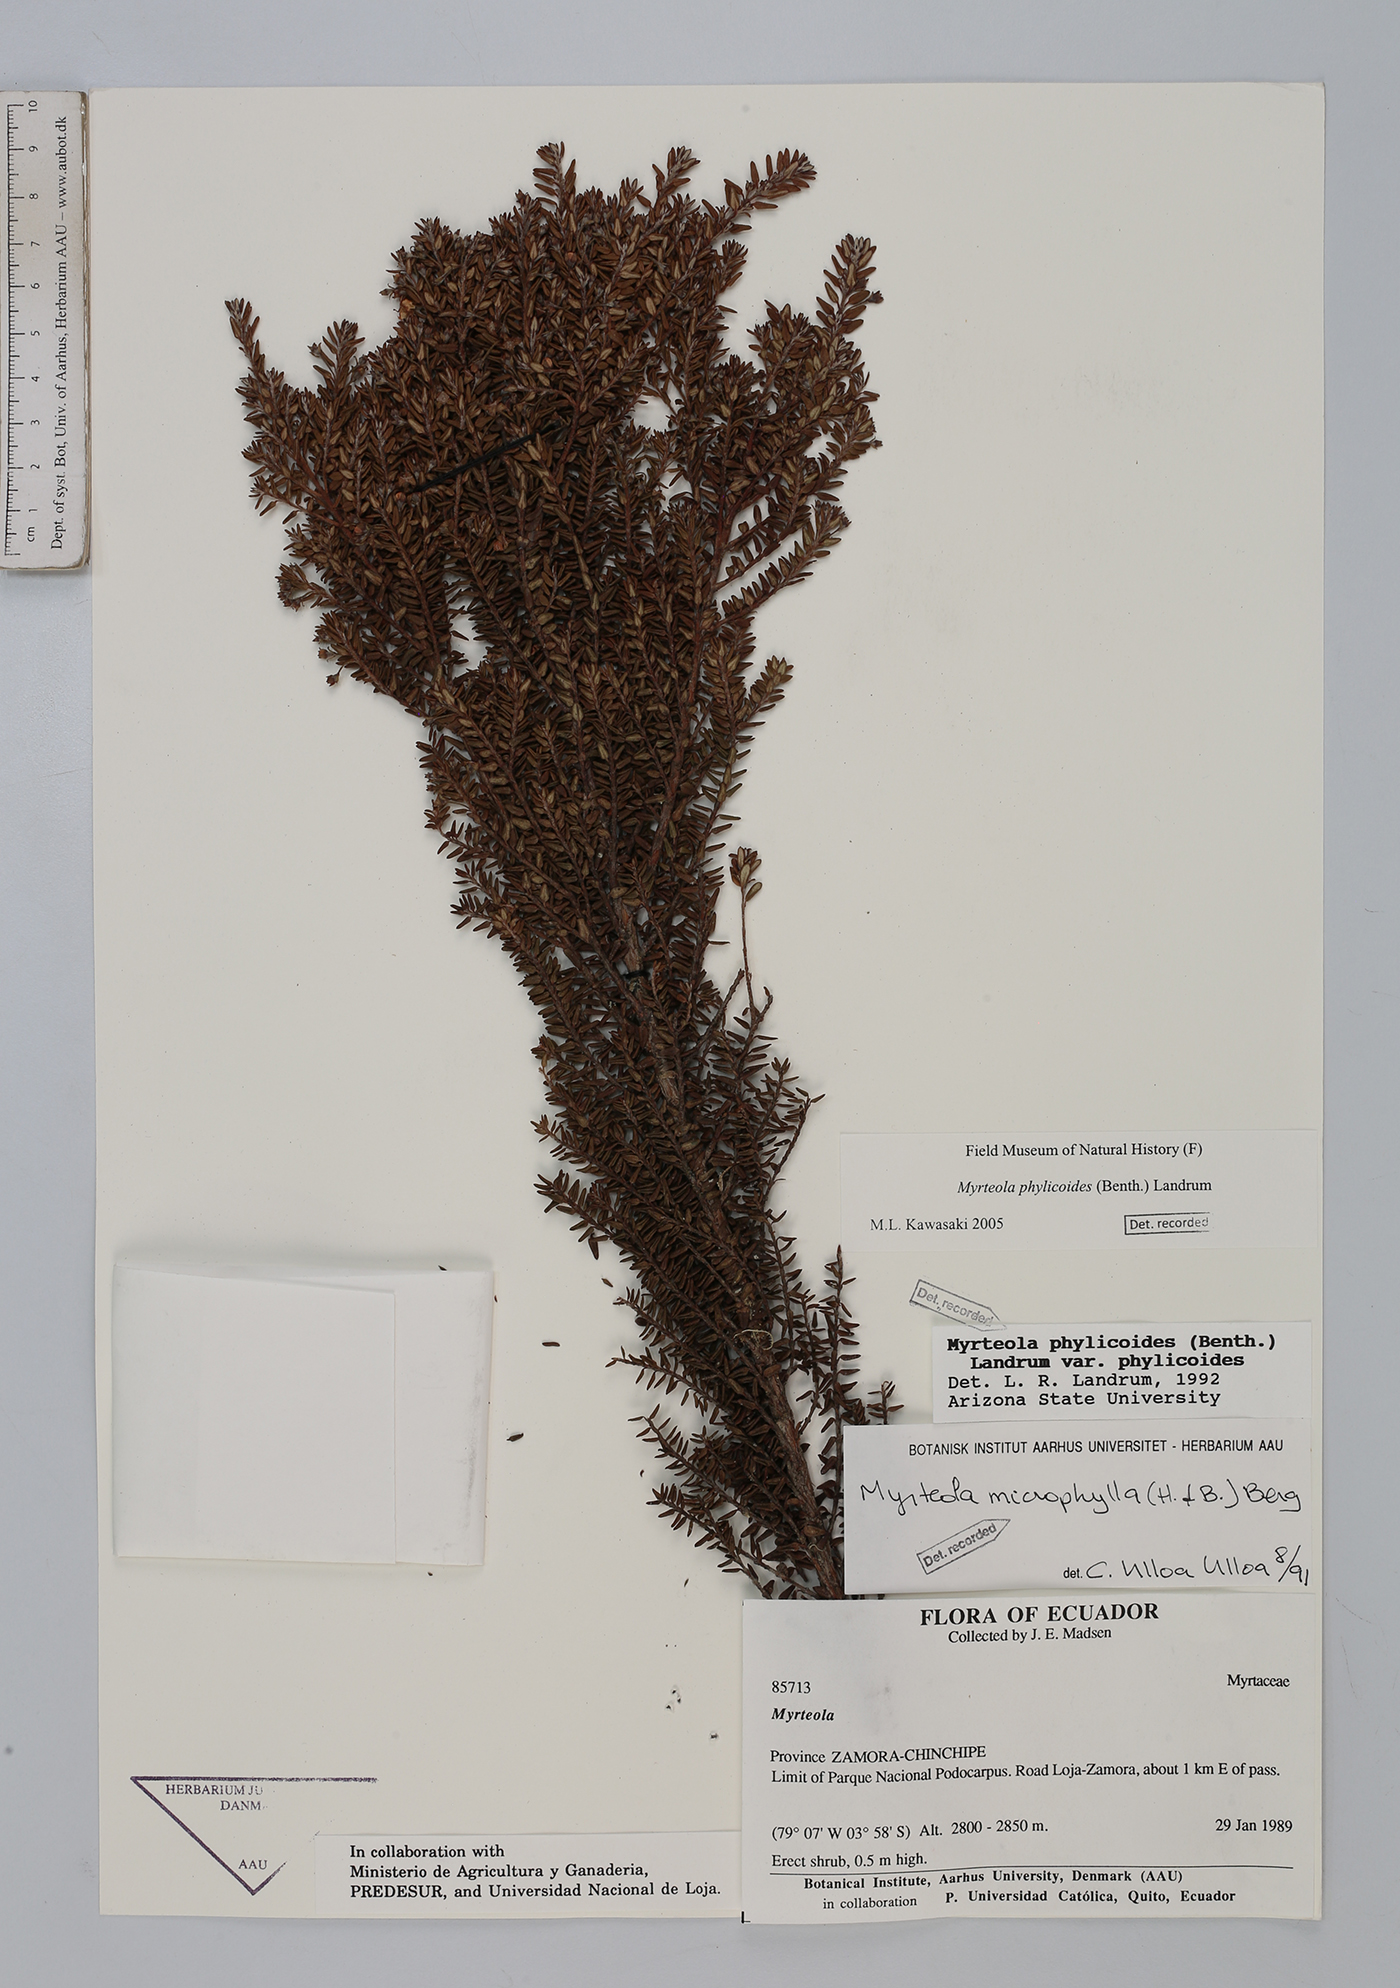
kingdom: Plantae
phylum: Tracheophyta
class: Magnoliopsida
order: Myrtales
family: Myrtaceae
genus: Myrteola
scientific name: Myrteola phylicoides
